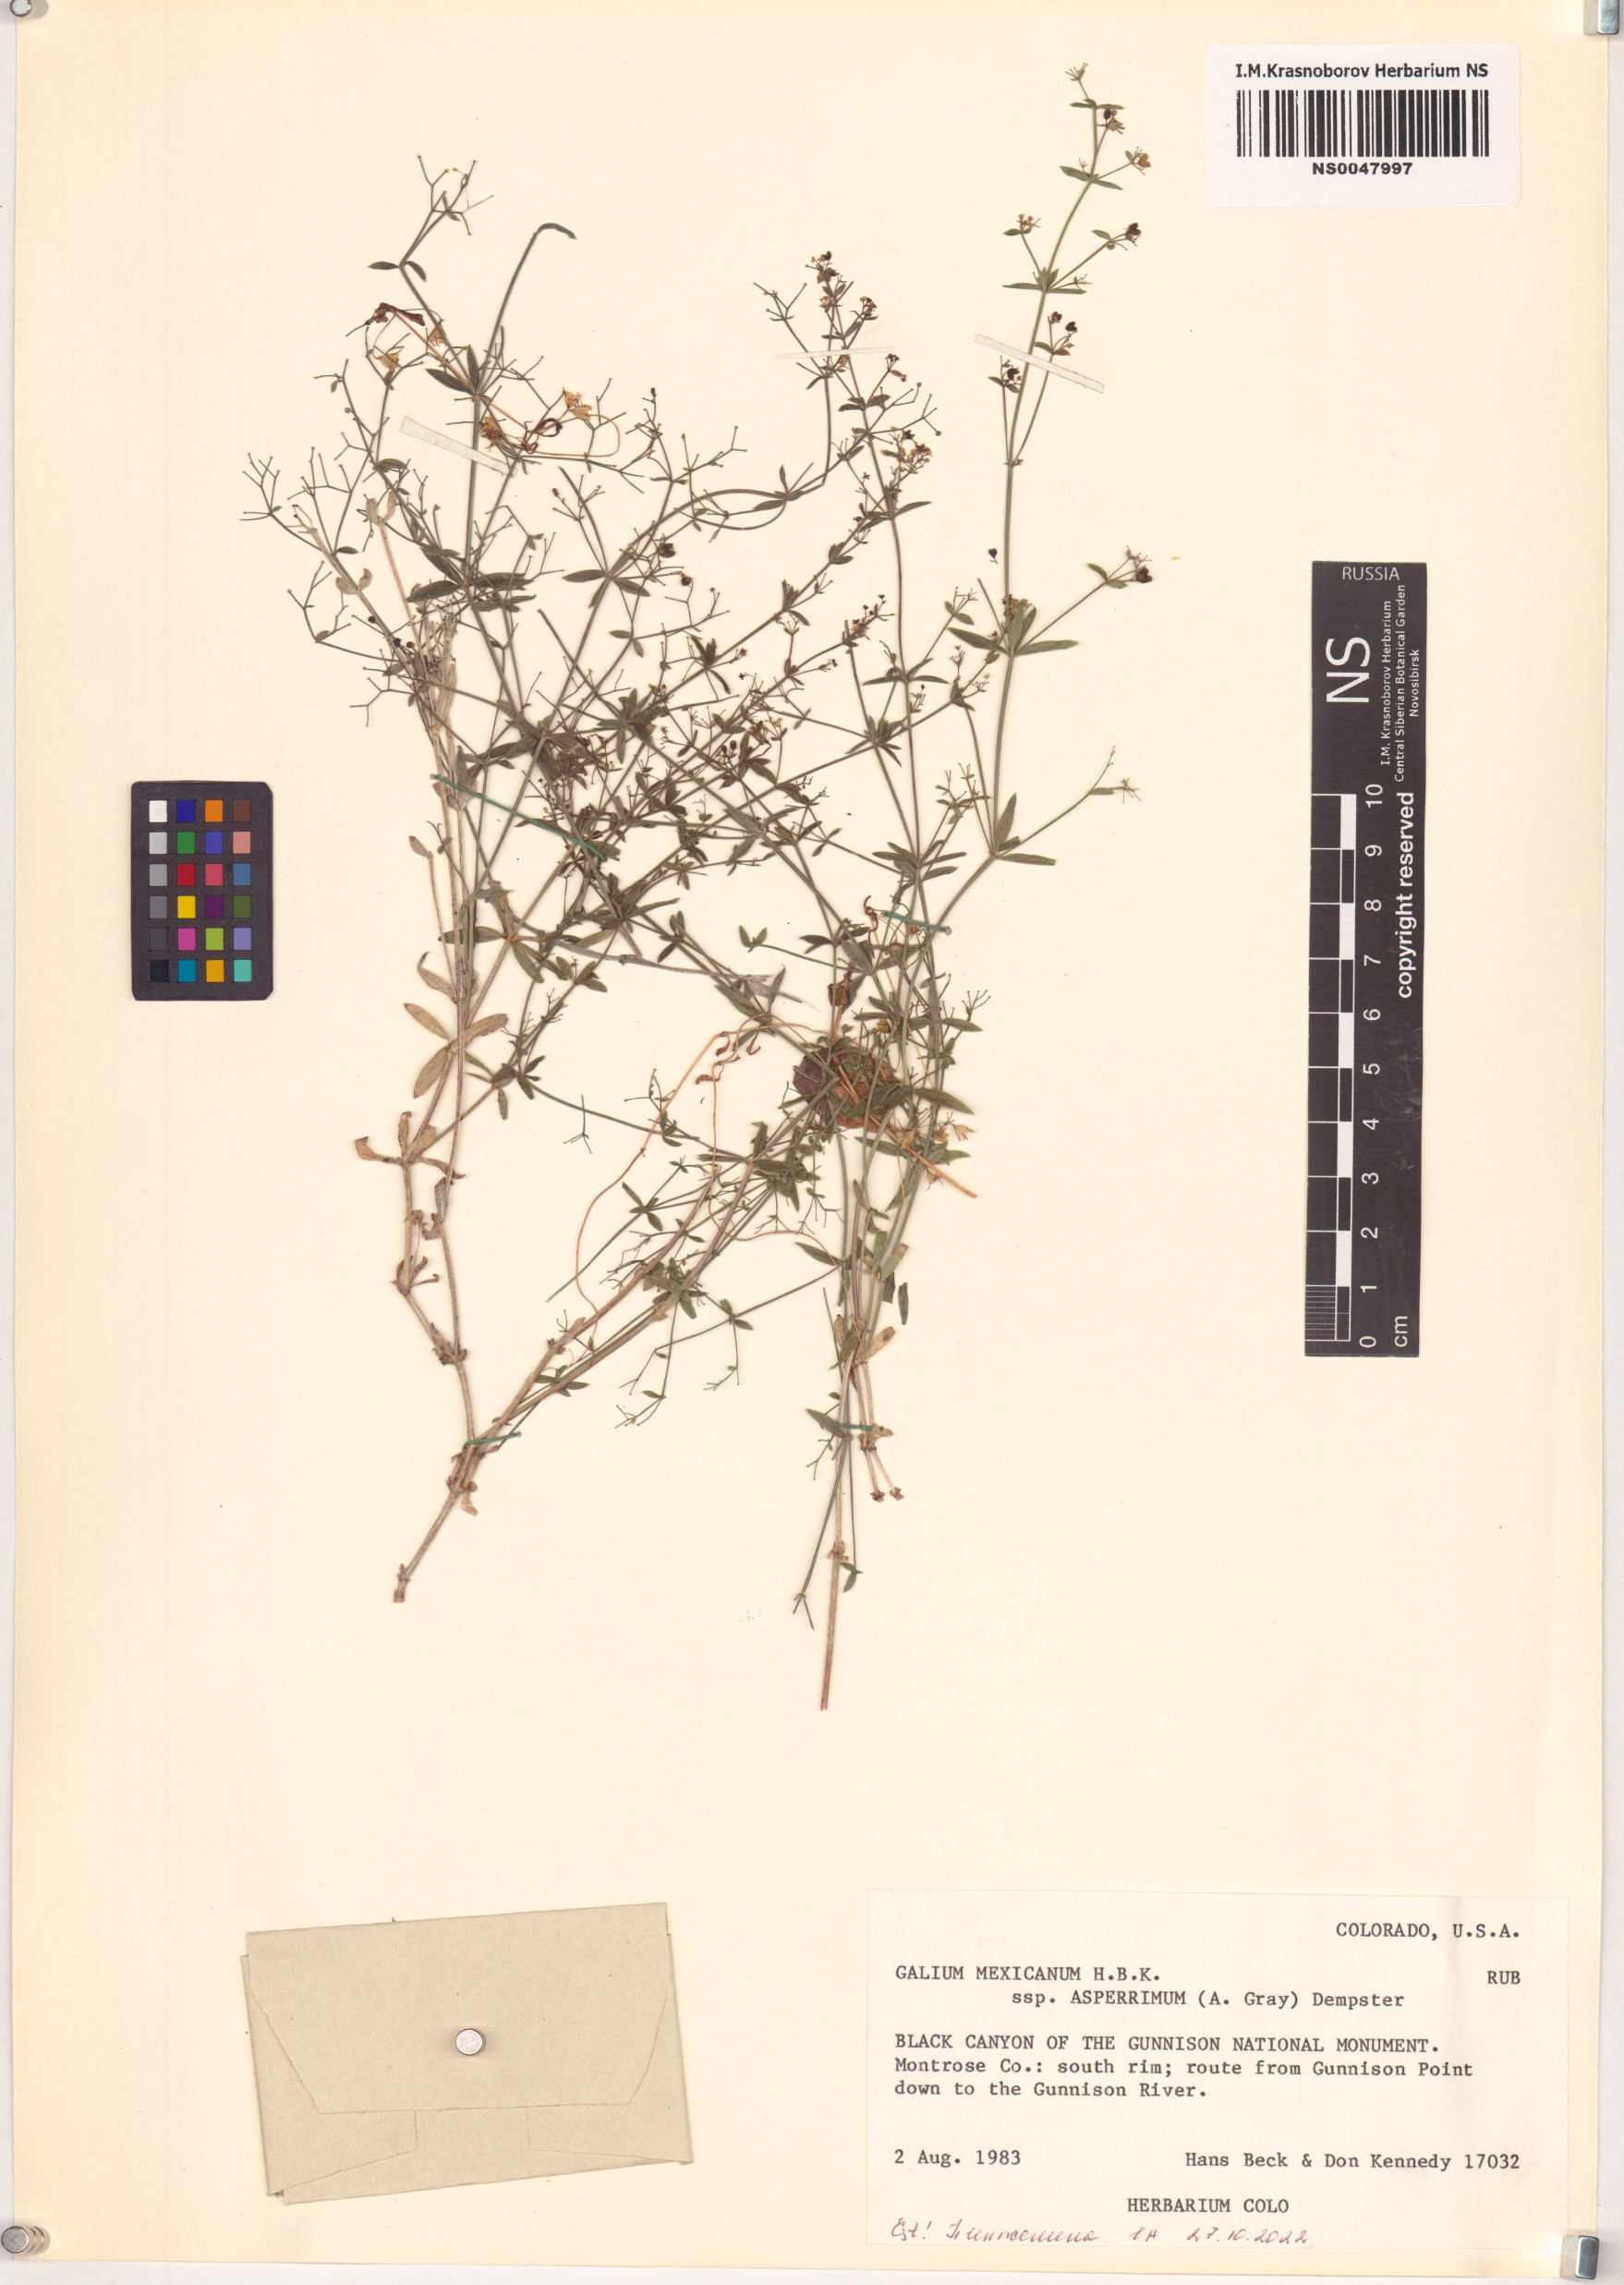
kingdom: Plantae
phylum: Tracheophyta
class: Magnoliopsida
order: Gentianales
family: Rubiaceae
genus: Galium
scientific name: Galium mexicanum
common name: Mexican bedstraw
